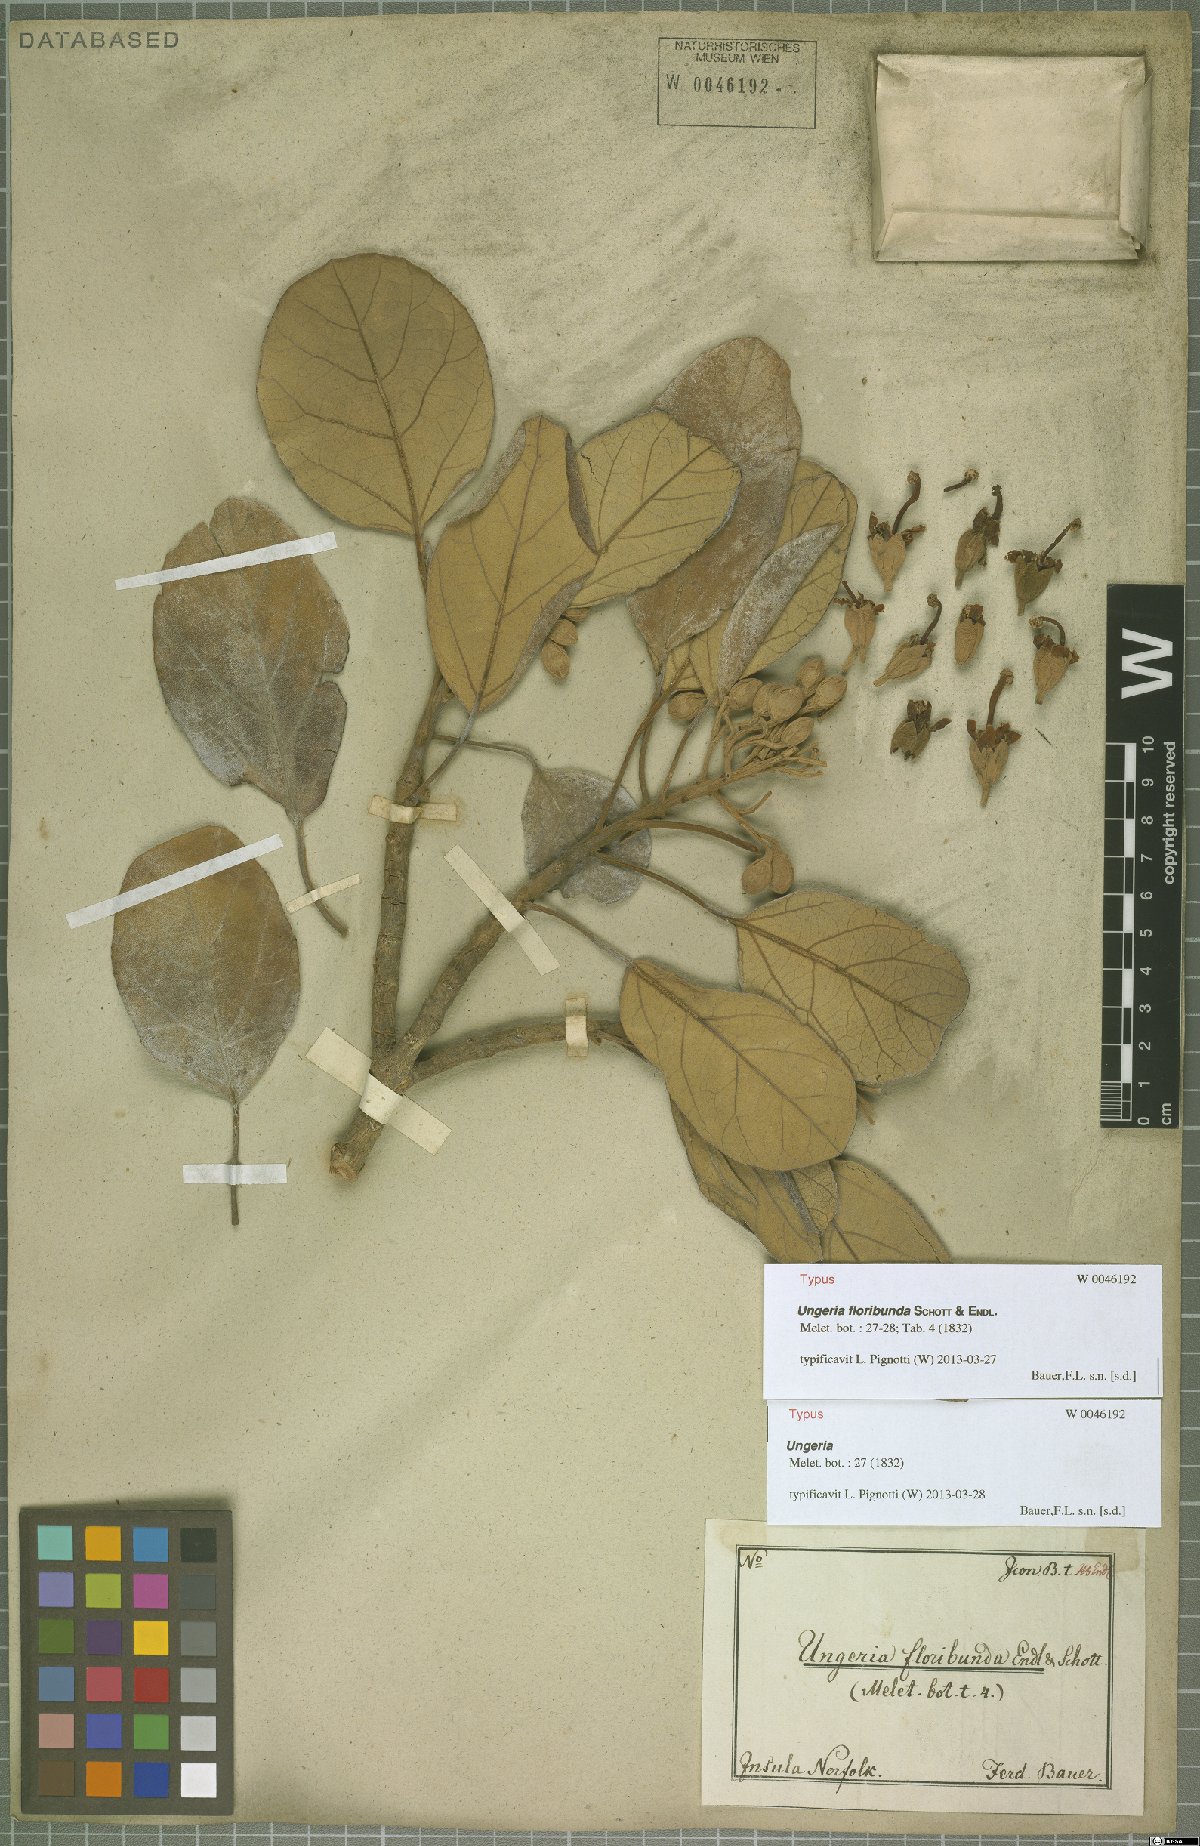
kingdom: Plantae
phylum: Tracheophyta
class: Magnoliopsida
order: Malvales
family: Malvaceae
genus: Ungeria
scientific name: Ungeria floribunda
